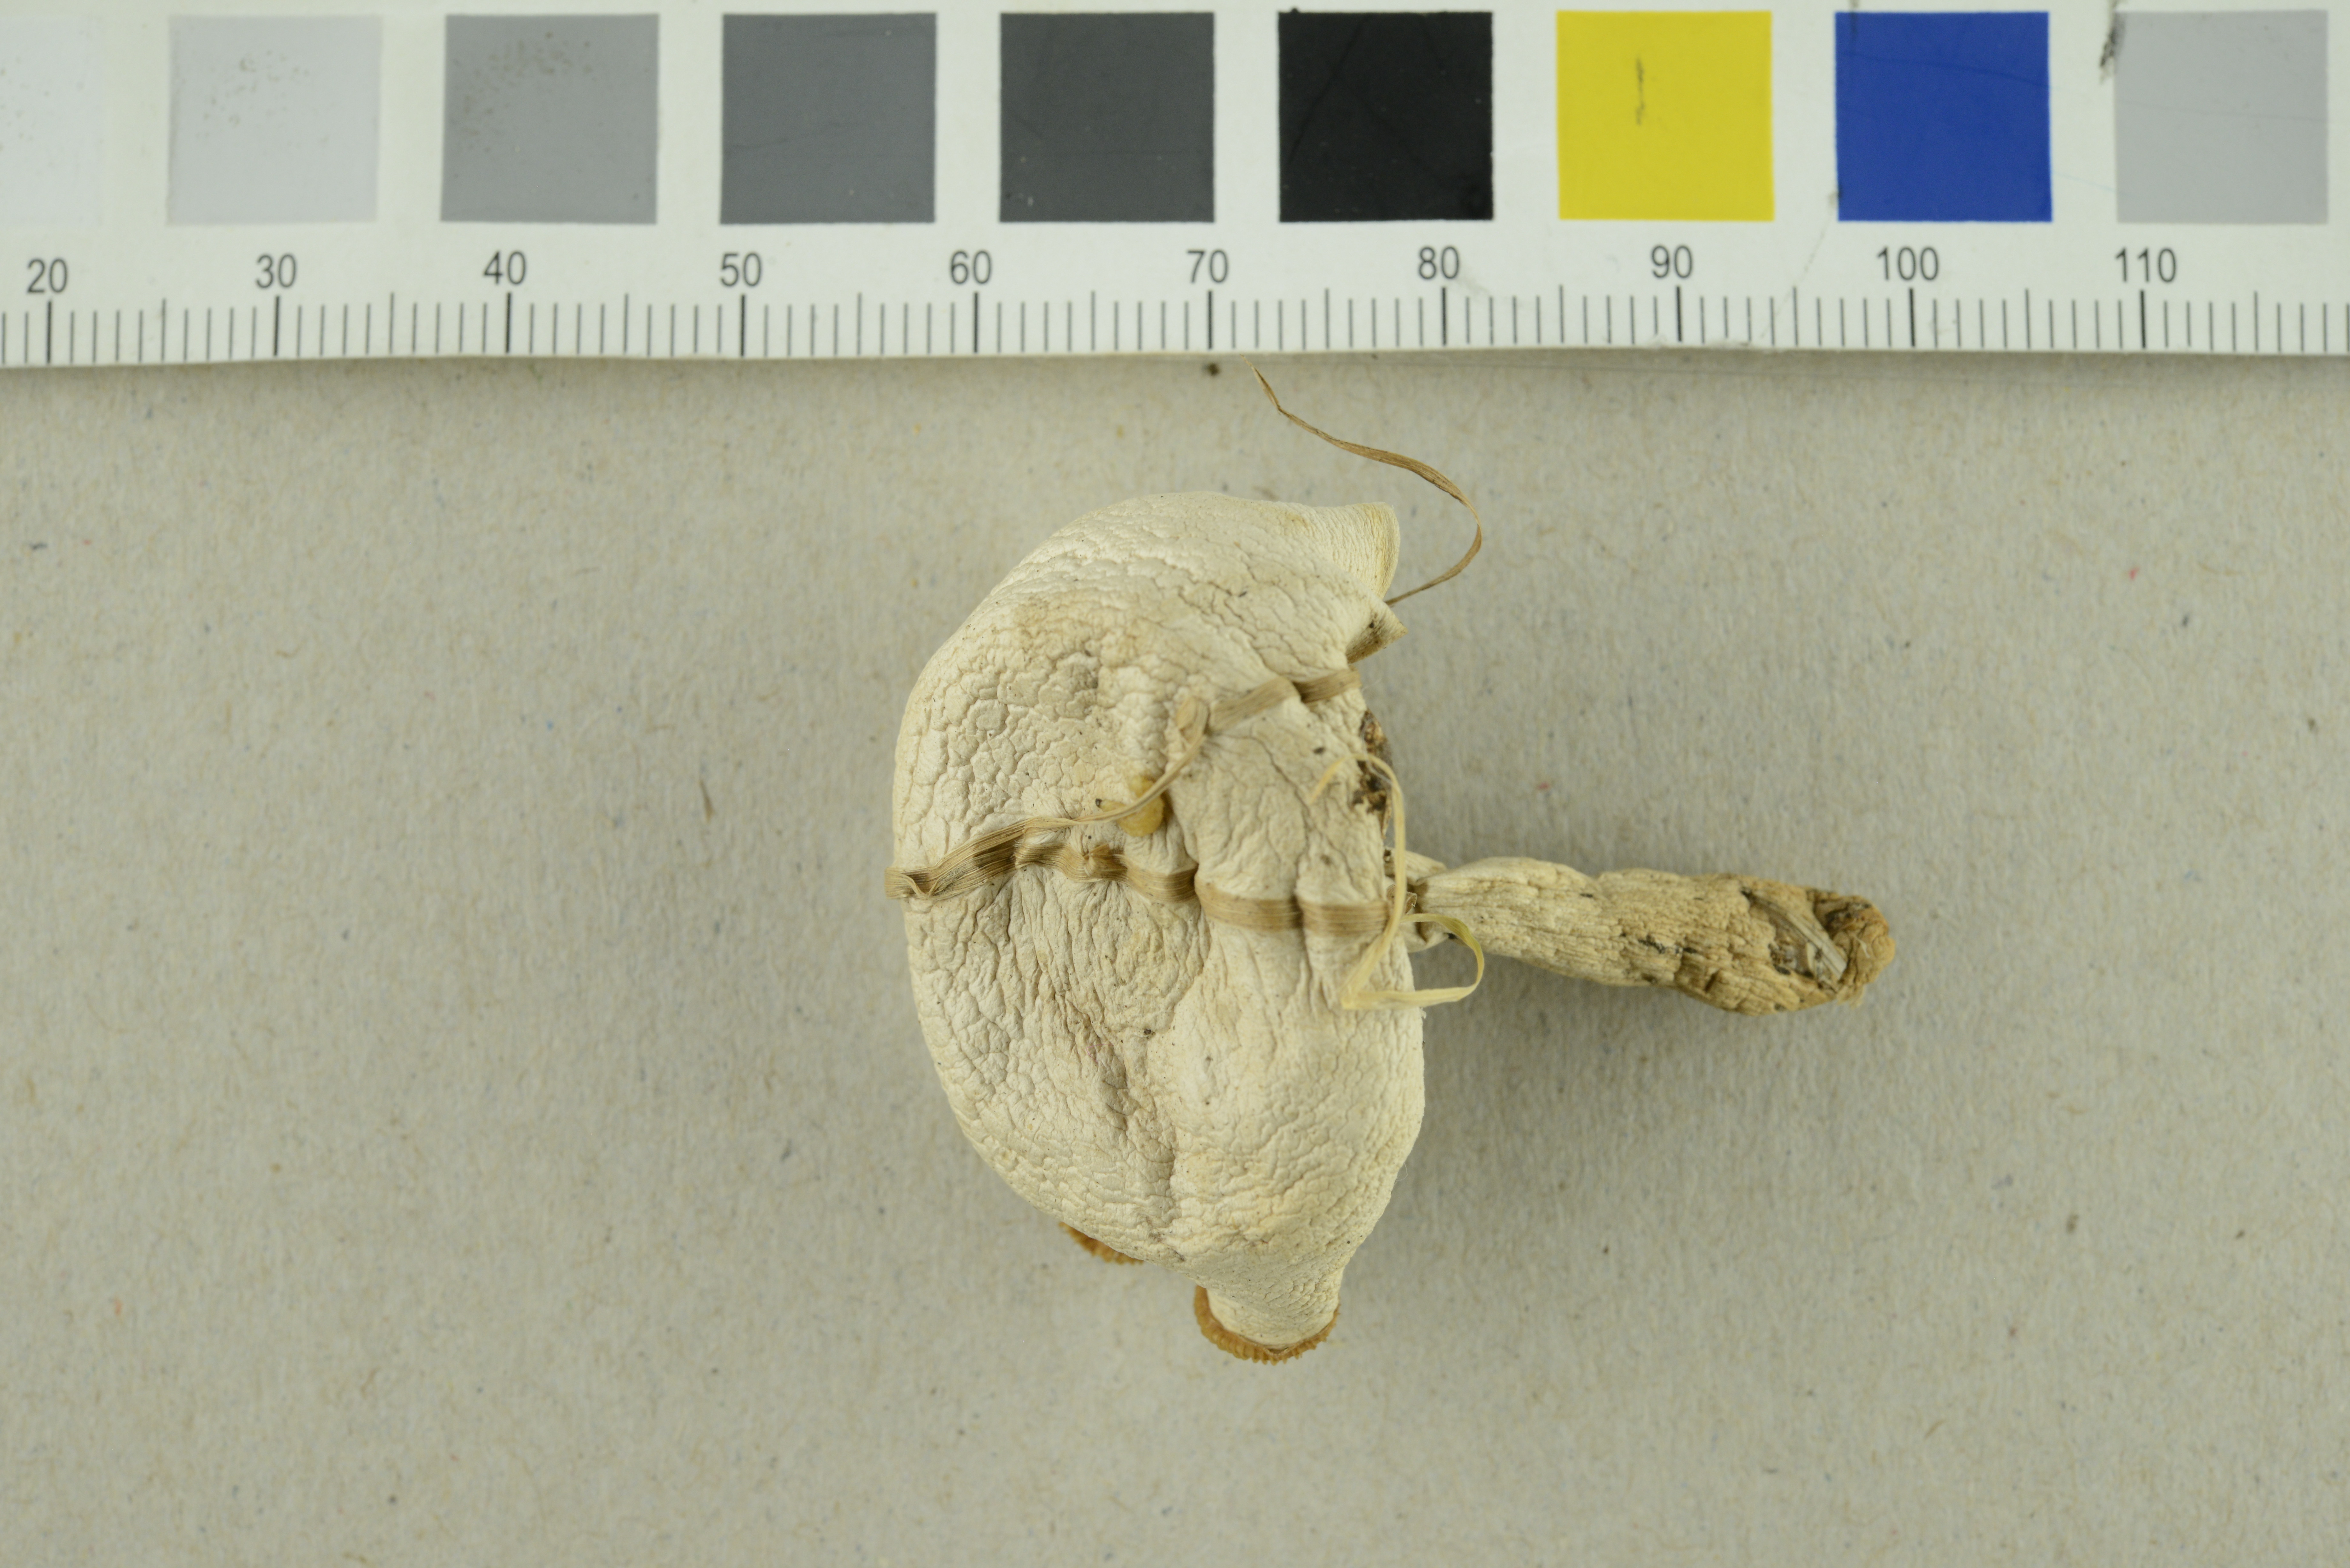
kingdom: Fungi
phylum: Basidiomycota
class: Agaricomycetes
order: Agaricales
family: Tricholomataceae
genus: Lepista
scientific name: Lepista subconnexa
